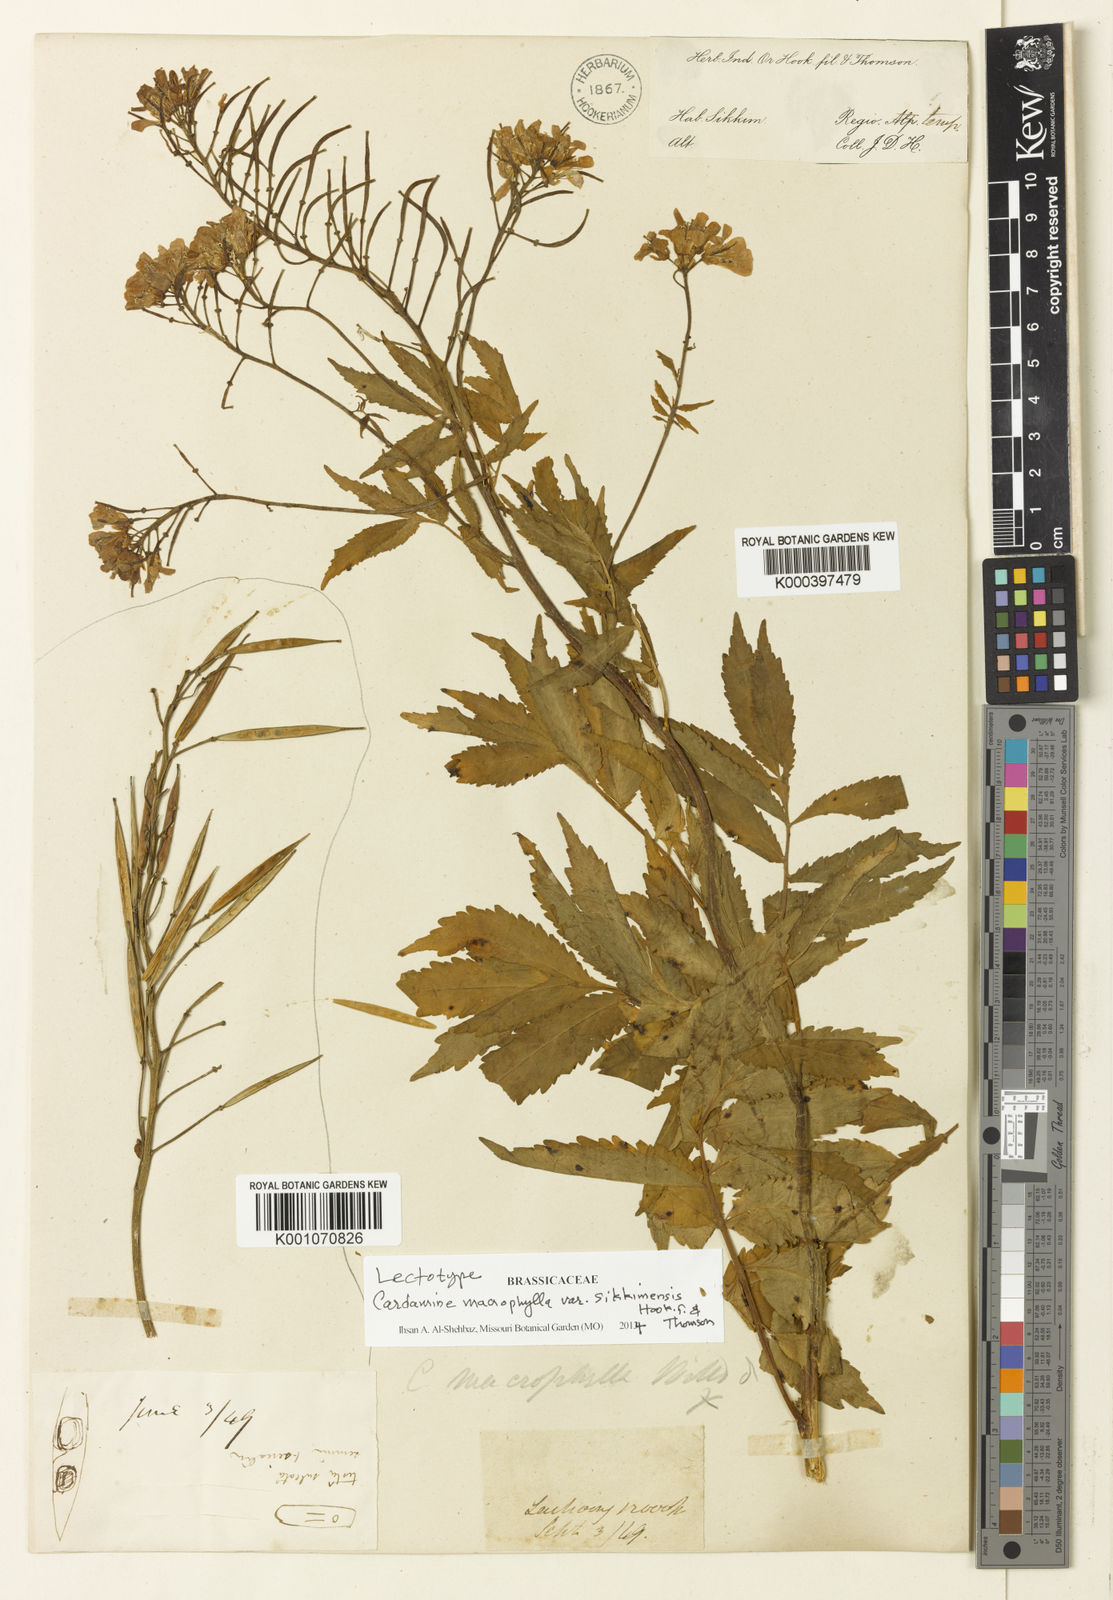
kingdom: Plantae
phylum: Tracheophyta
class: Magnoliopsida
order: Brassicales
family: Brassicaceae
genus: Cardamine
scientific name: Cardamine macrophylla
